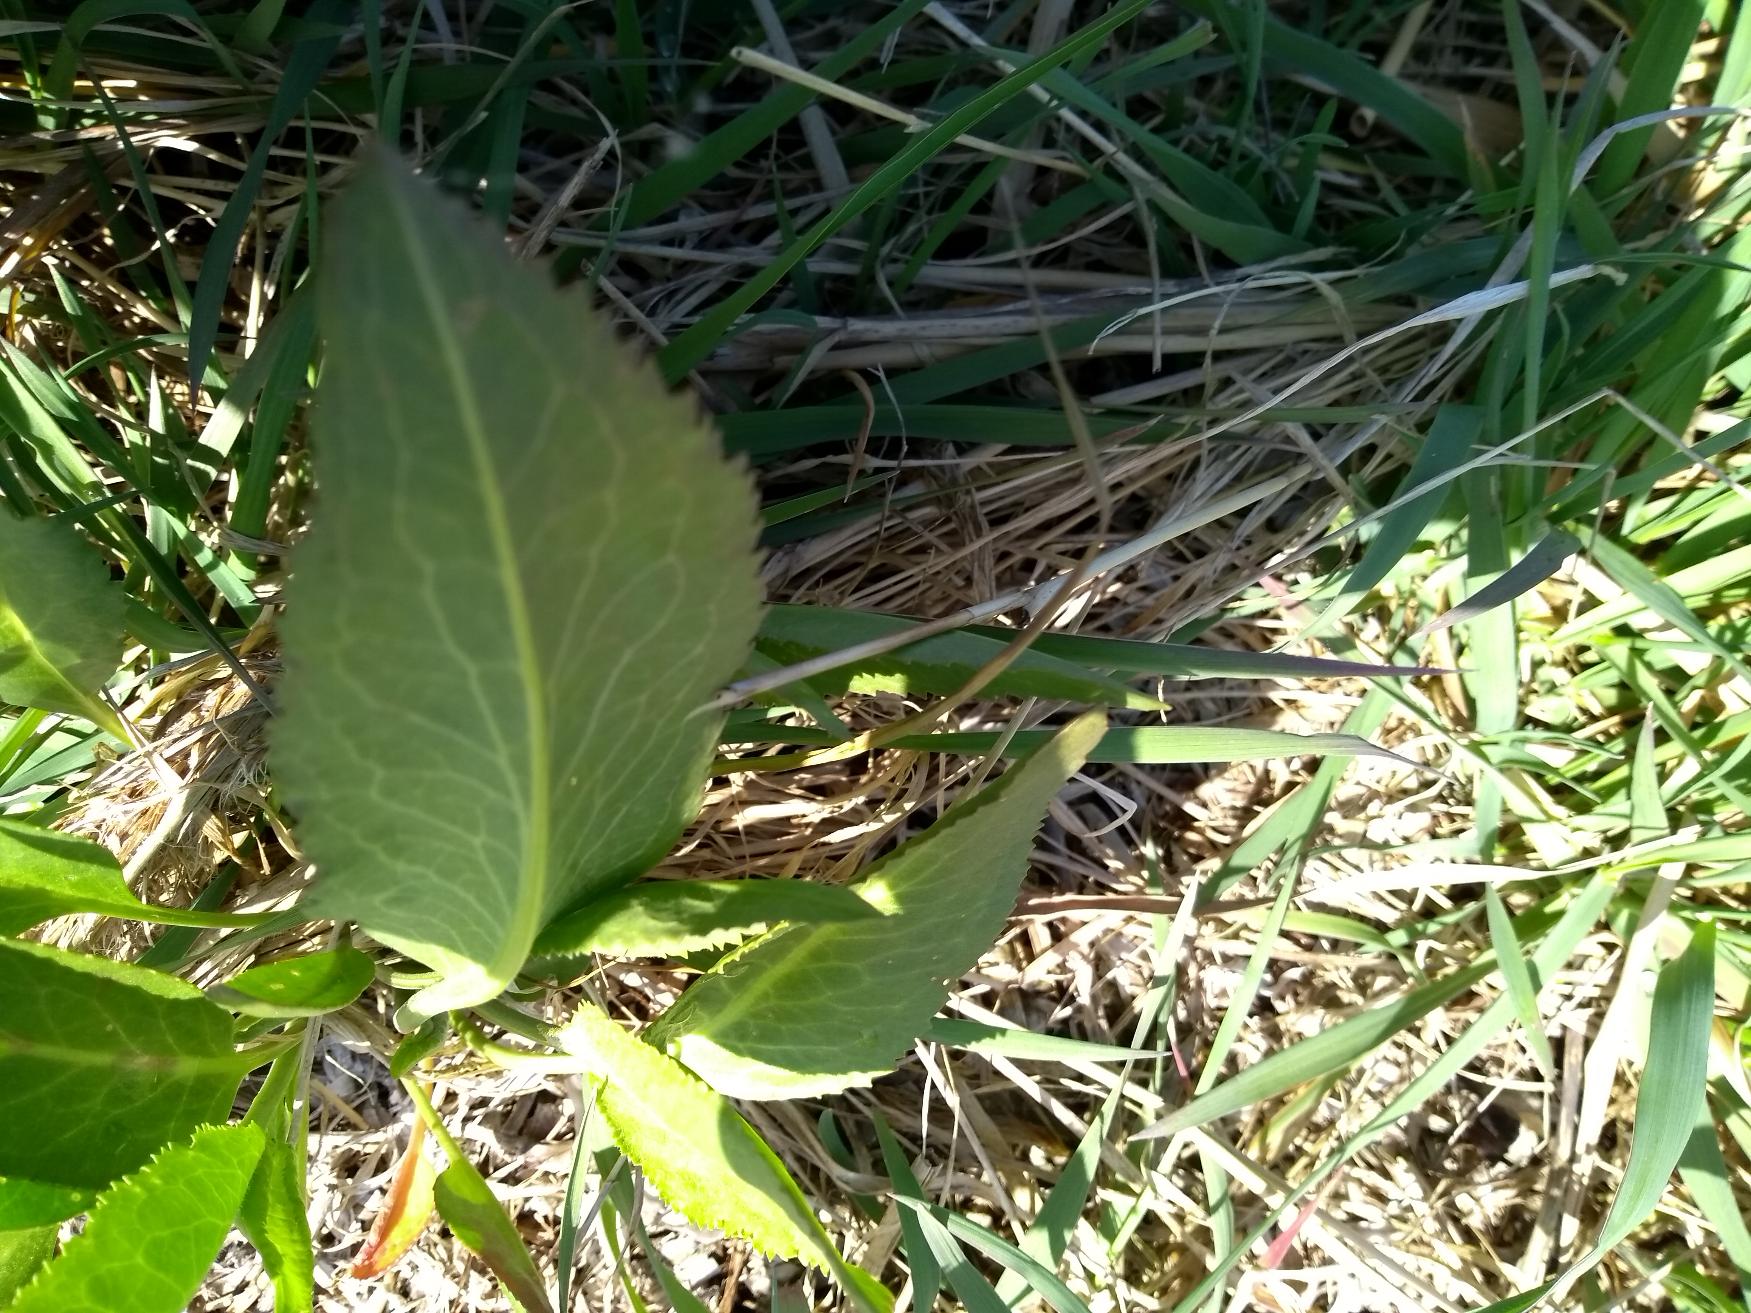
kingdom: Plantae
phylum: Tracheophyta
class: Magnoliopsida
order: Brassicales
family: Brassicaceae
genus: Lepidium
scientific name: Lepidium latifolium
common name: Strand-karse
